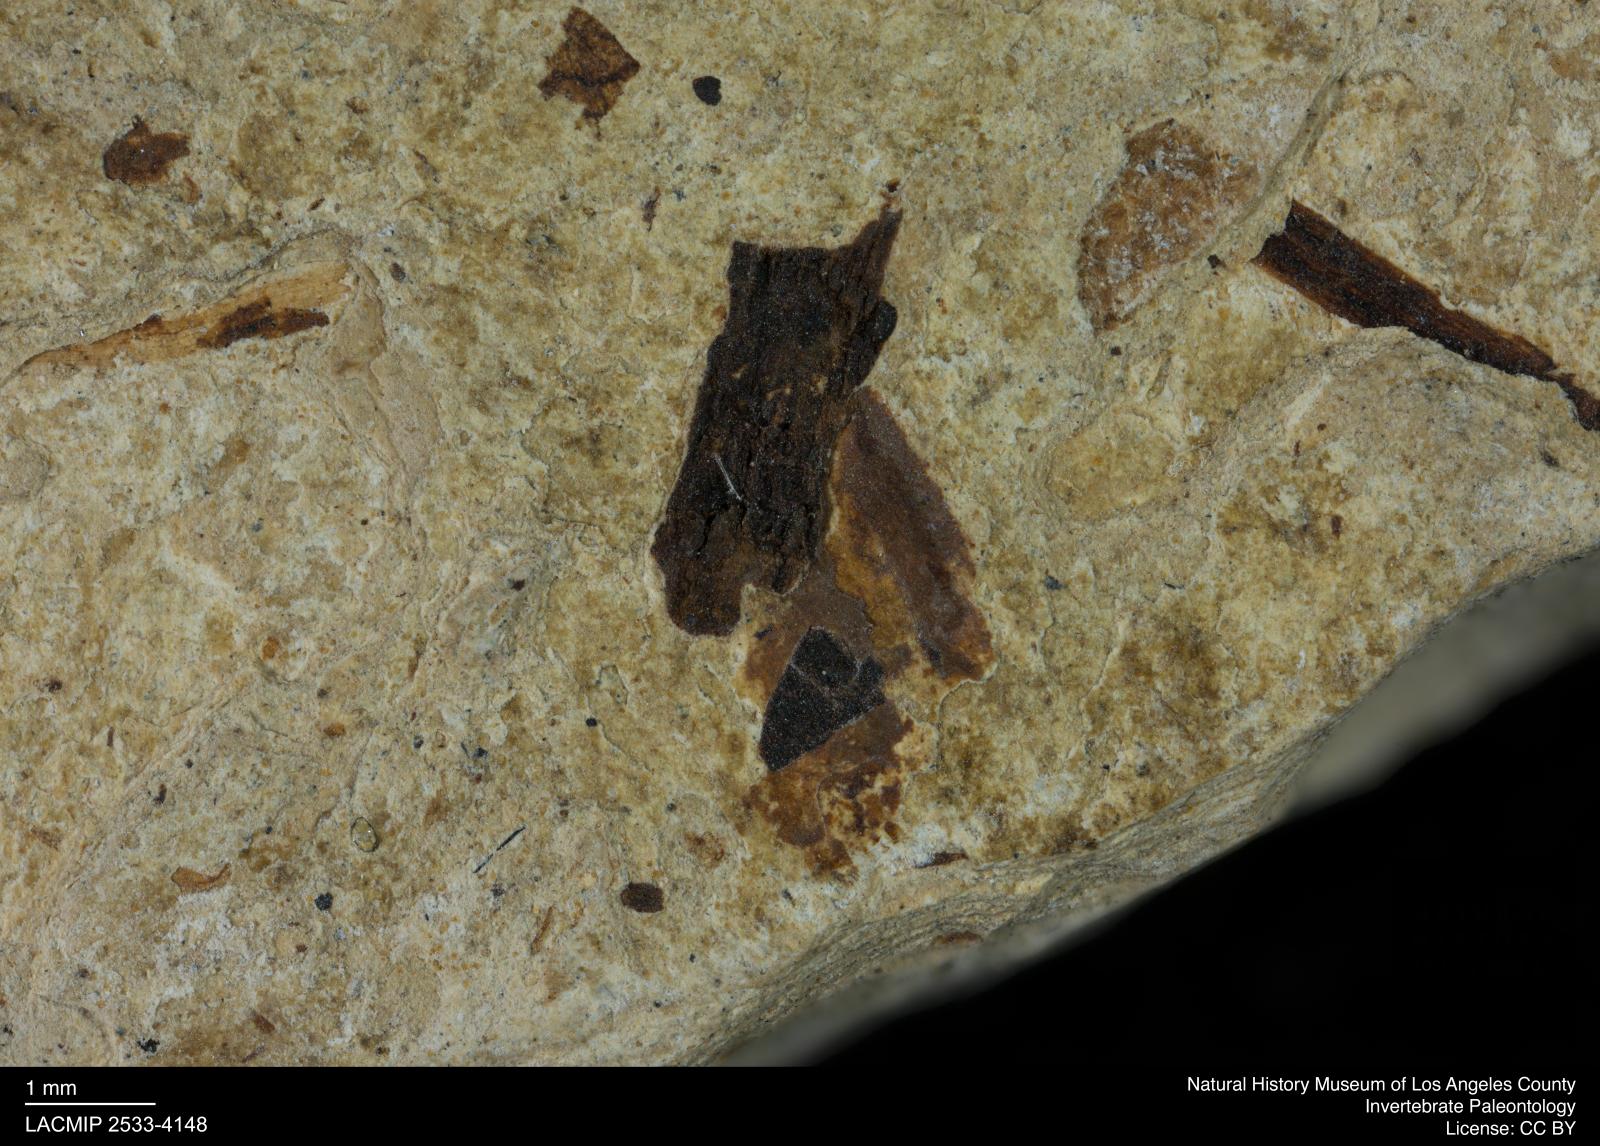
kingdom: Animalia
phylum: Arthropoda
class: Insecta
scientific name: Insecta
